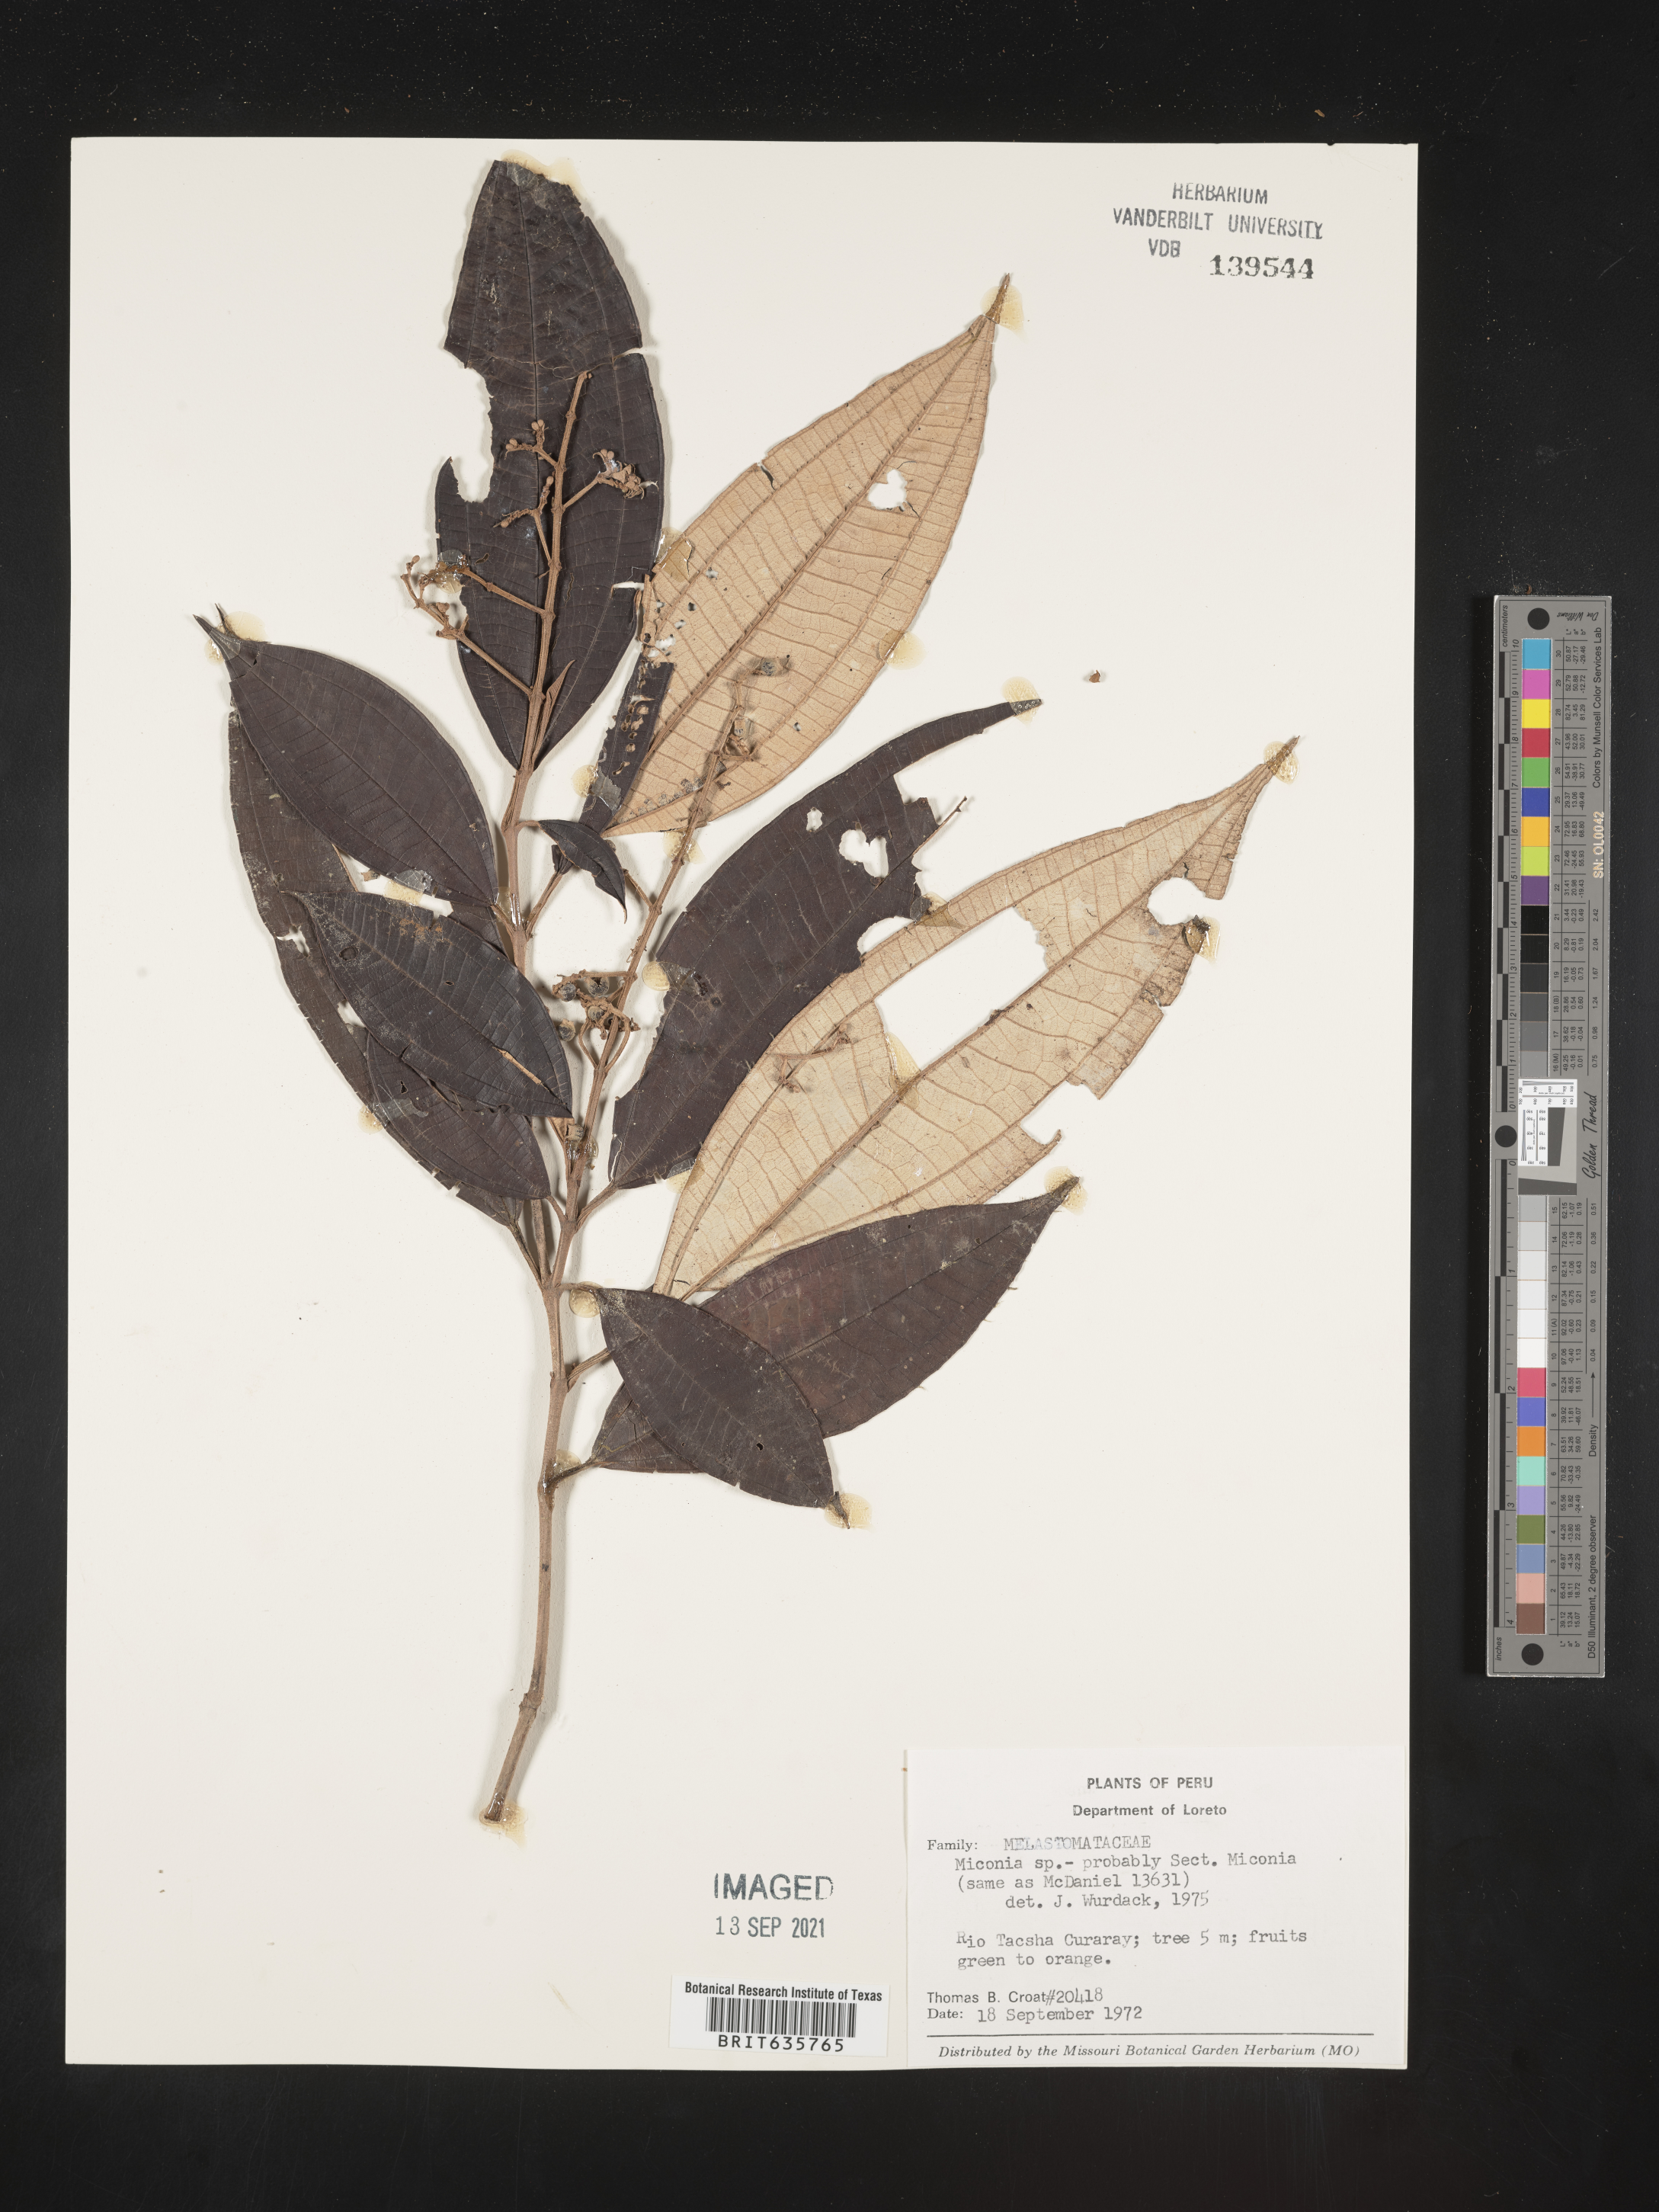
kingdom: Plantae
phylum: Tracheophyta
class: Magnoliopsida
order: Myrtales
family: Melastomataceae
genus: Miconia
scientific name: Miconia
